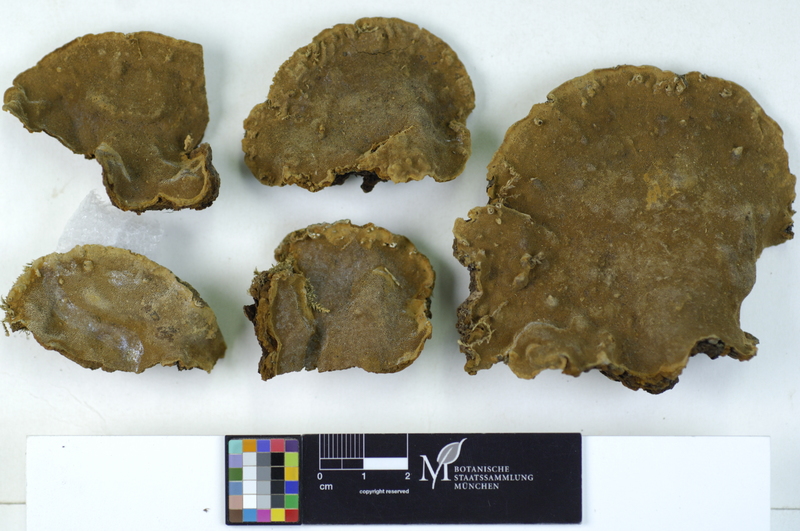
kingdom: Fungi
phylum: Basidiomycota
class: Agaricomycetes
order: Hymenochaetales
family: Hymenochaetaceae
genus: Phellinopsis
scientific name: Phellinopsis conchata
